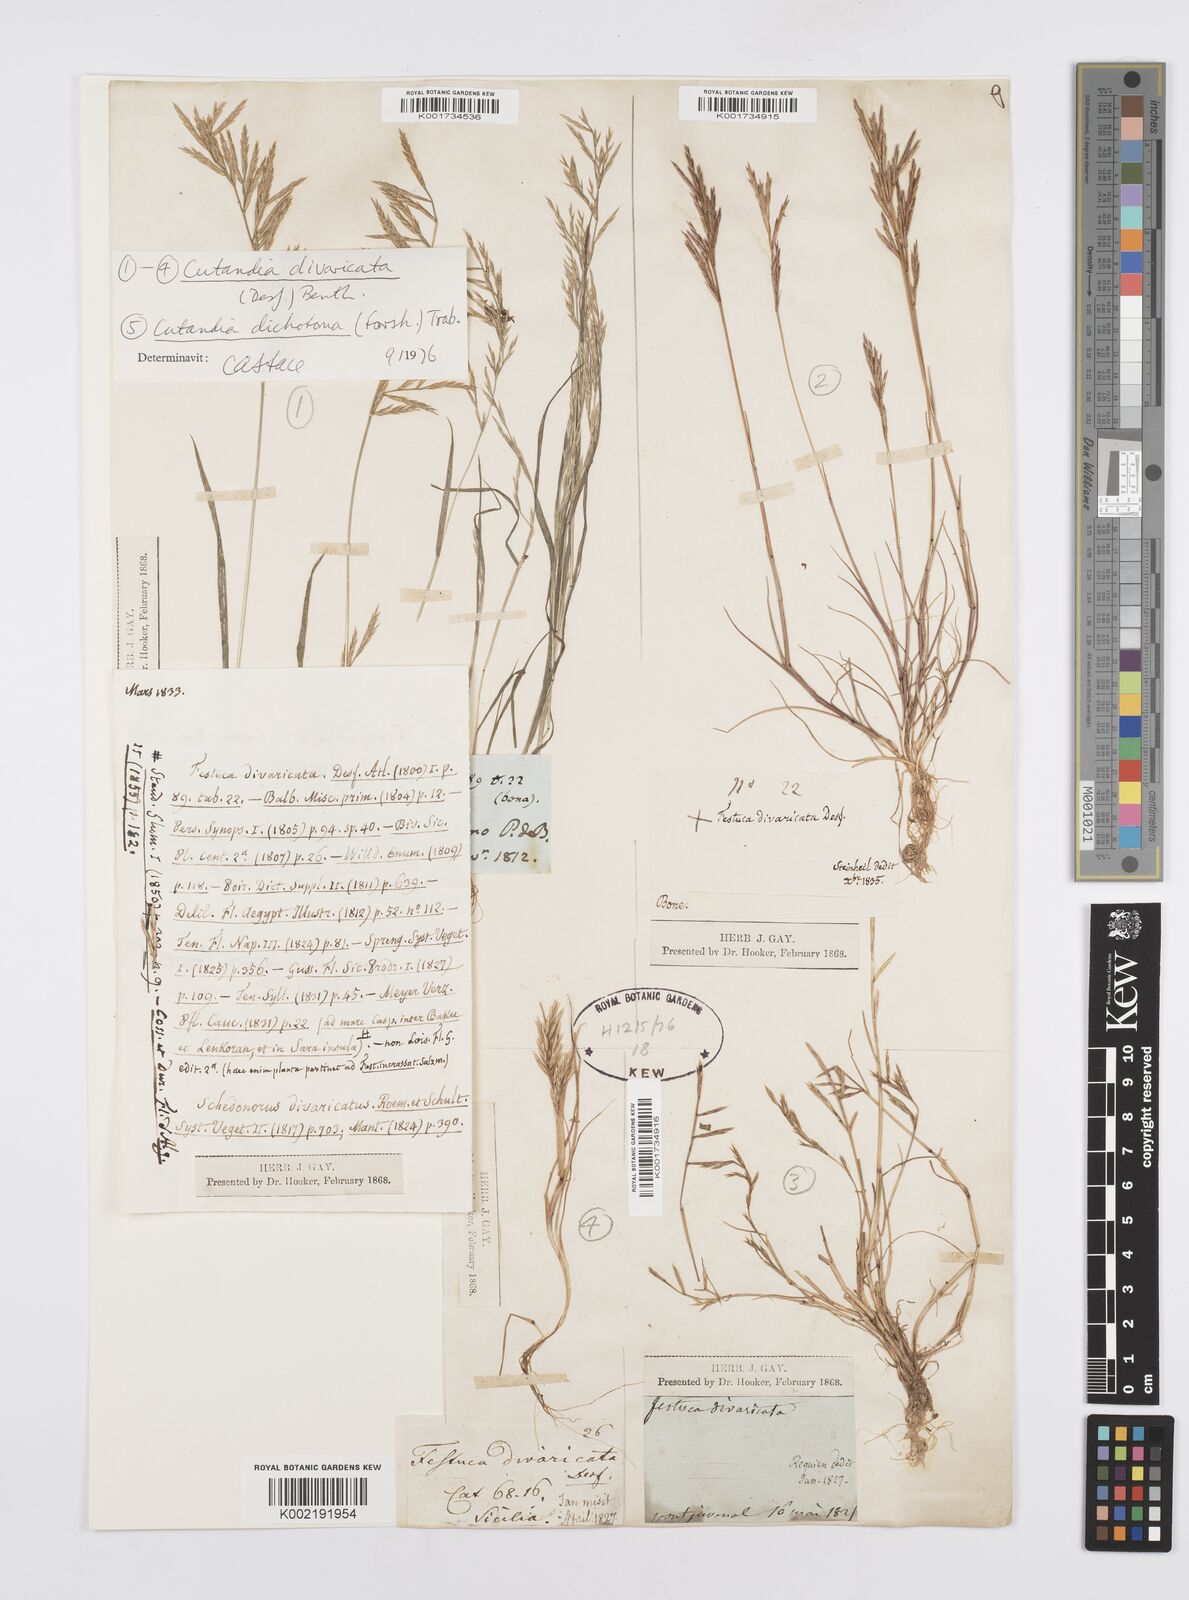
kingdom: Plantae
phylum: Tracheophyta
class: Liliopsida
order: Poales
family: Poaceae
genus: Cutandia
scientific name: Cutandia divaricata
